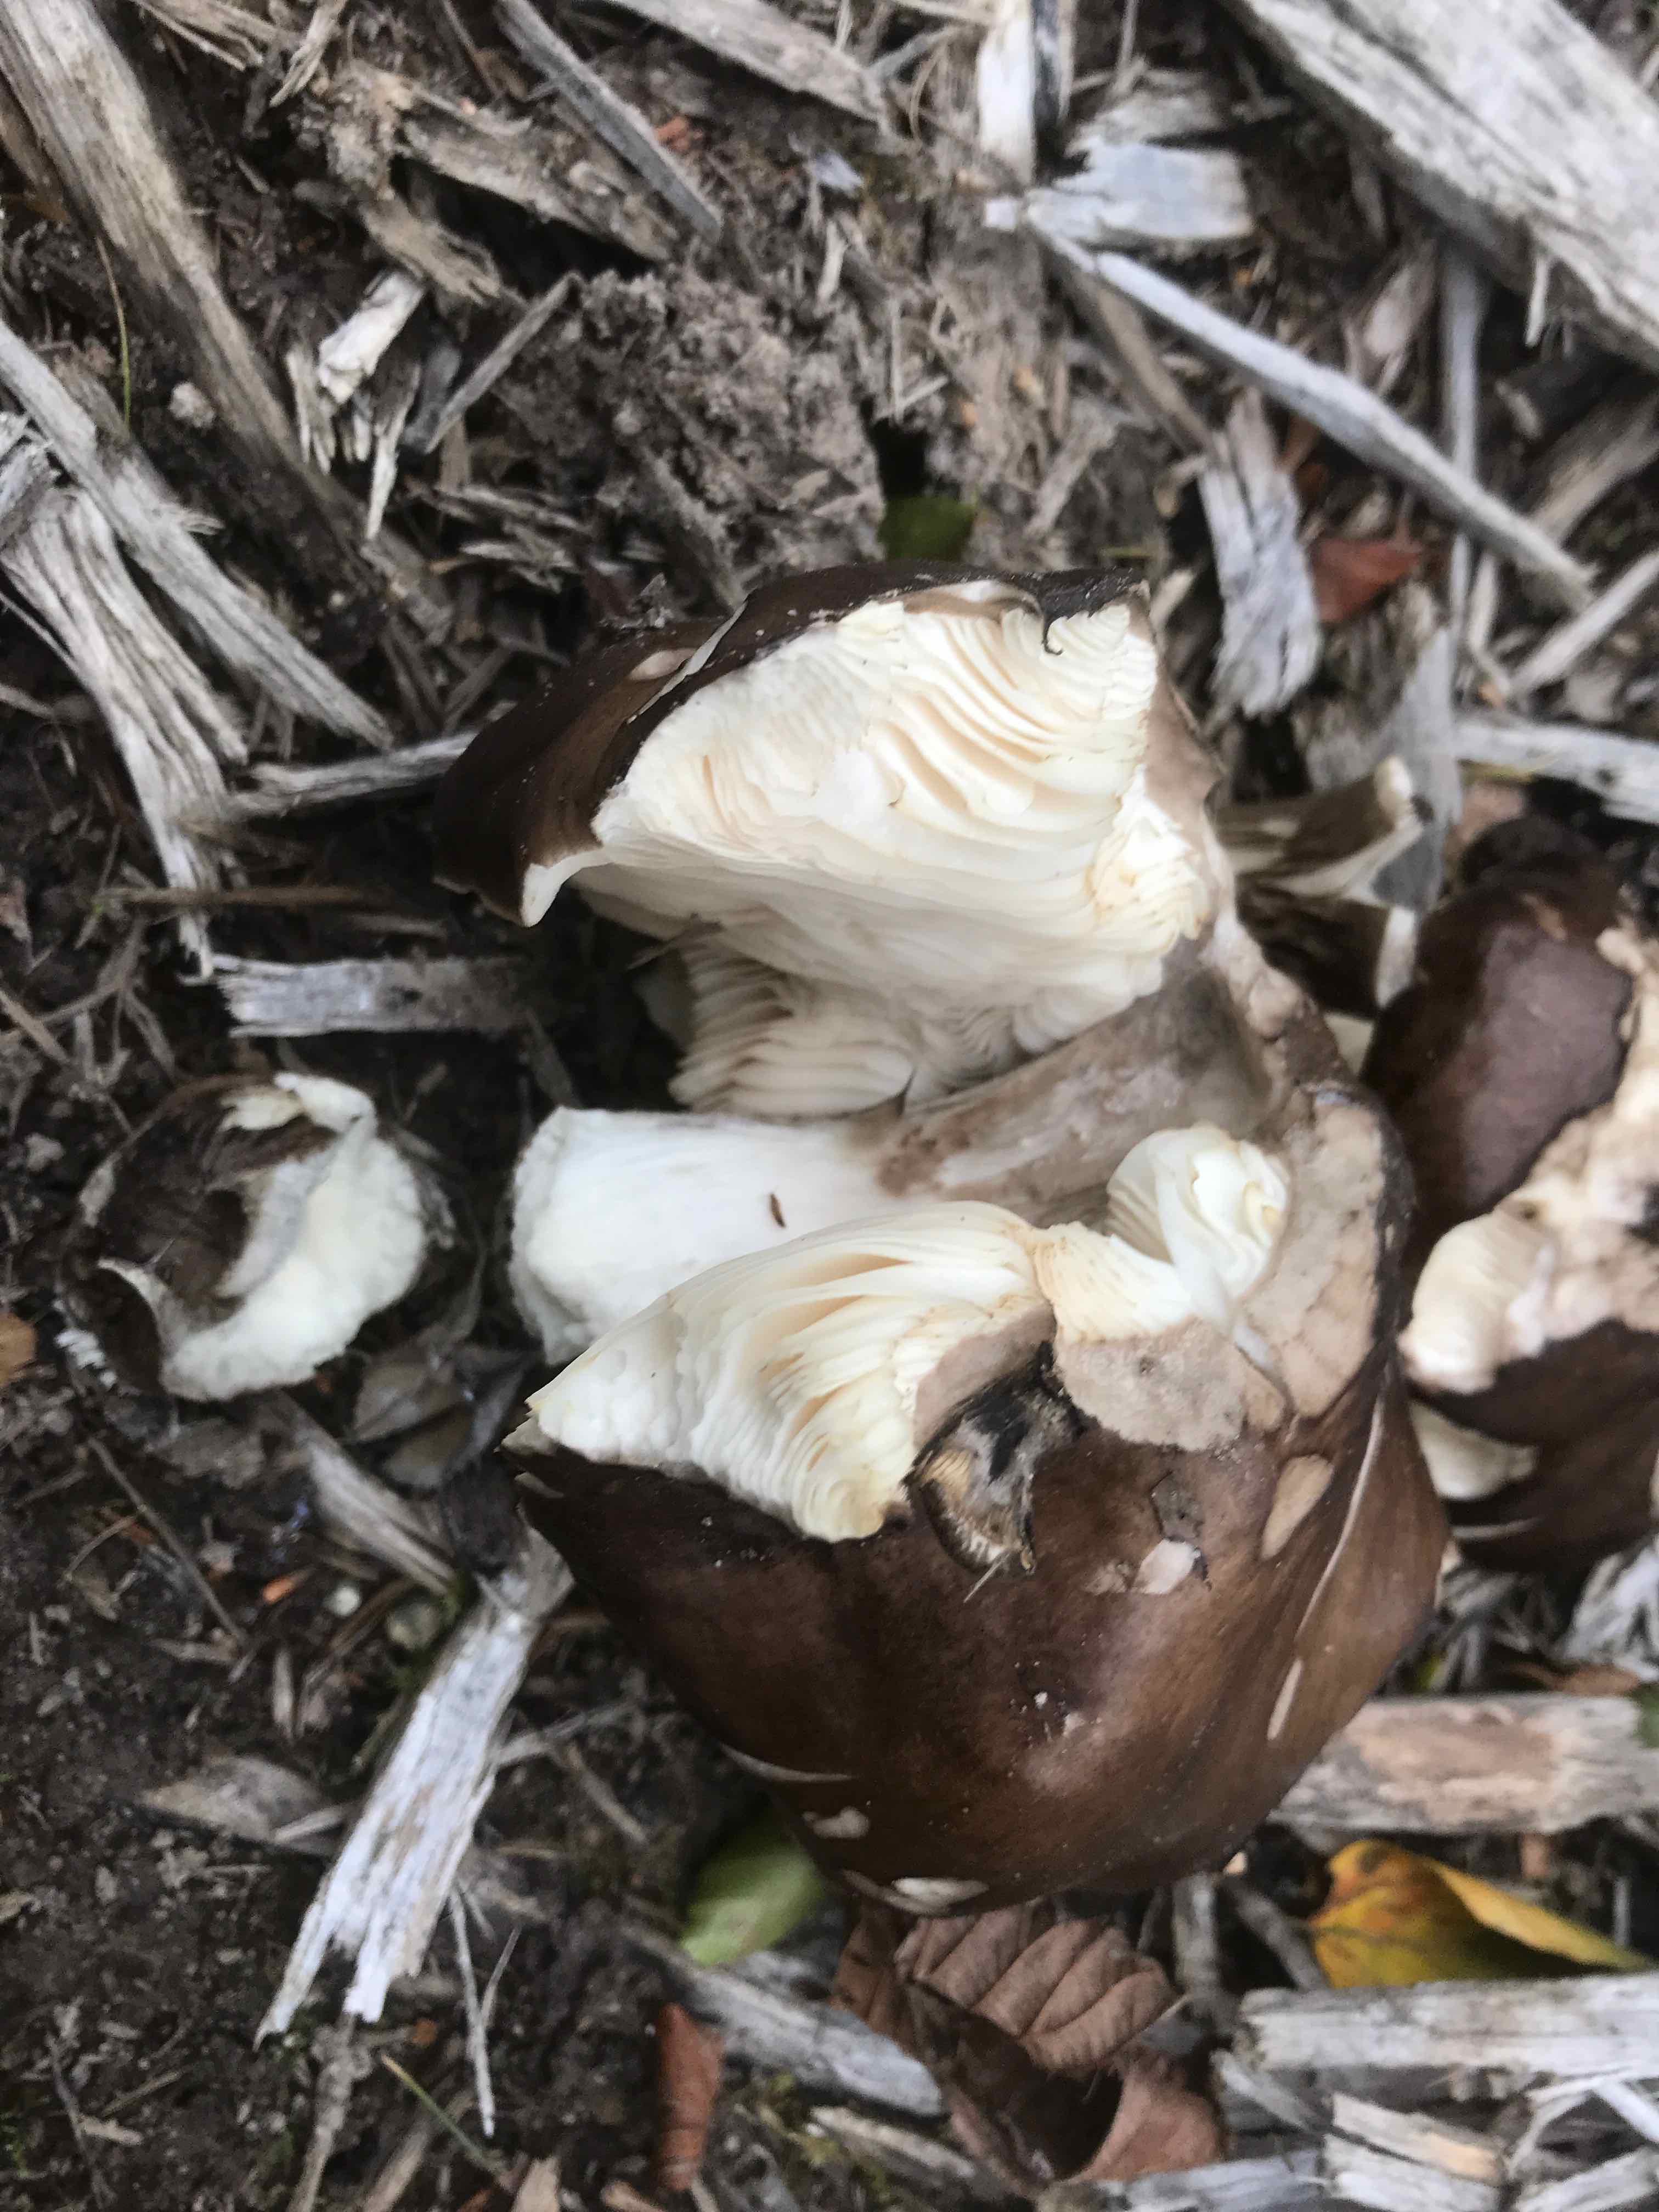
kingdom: Fungi
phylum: Basidiomycota
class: Agaricomycetes
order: Agaricales
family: Pluteaceae
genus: Pluteus
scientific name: Pluteus cervinus
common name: sodfarvet skærmhat
